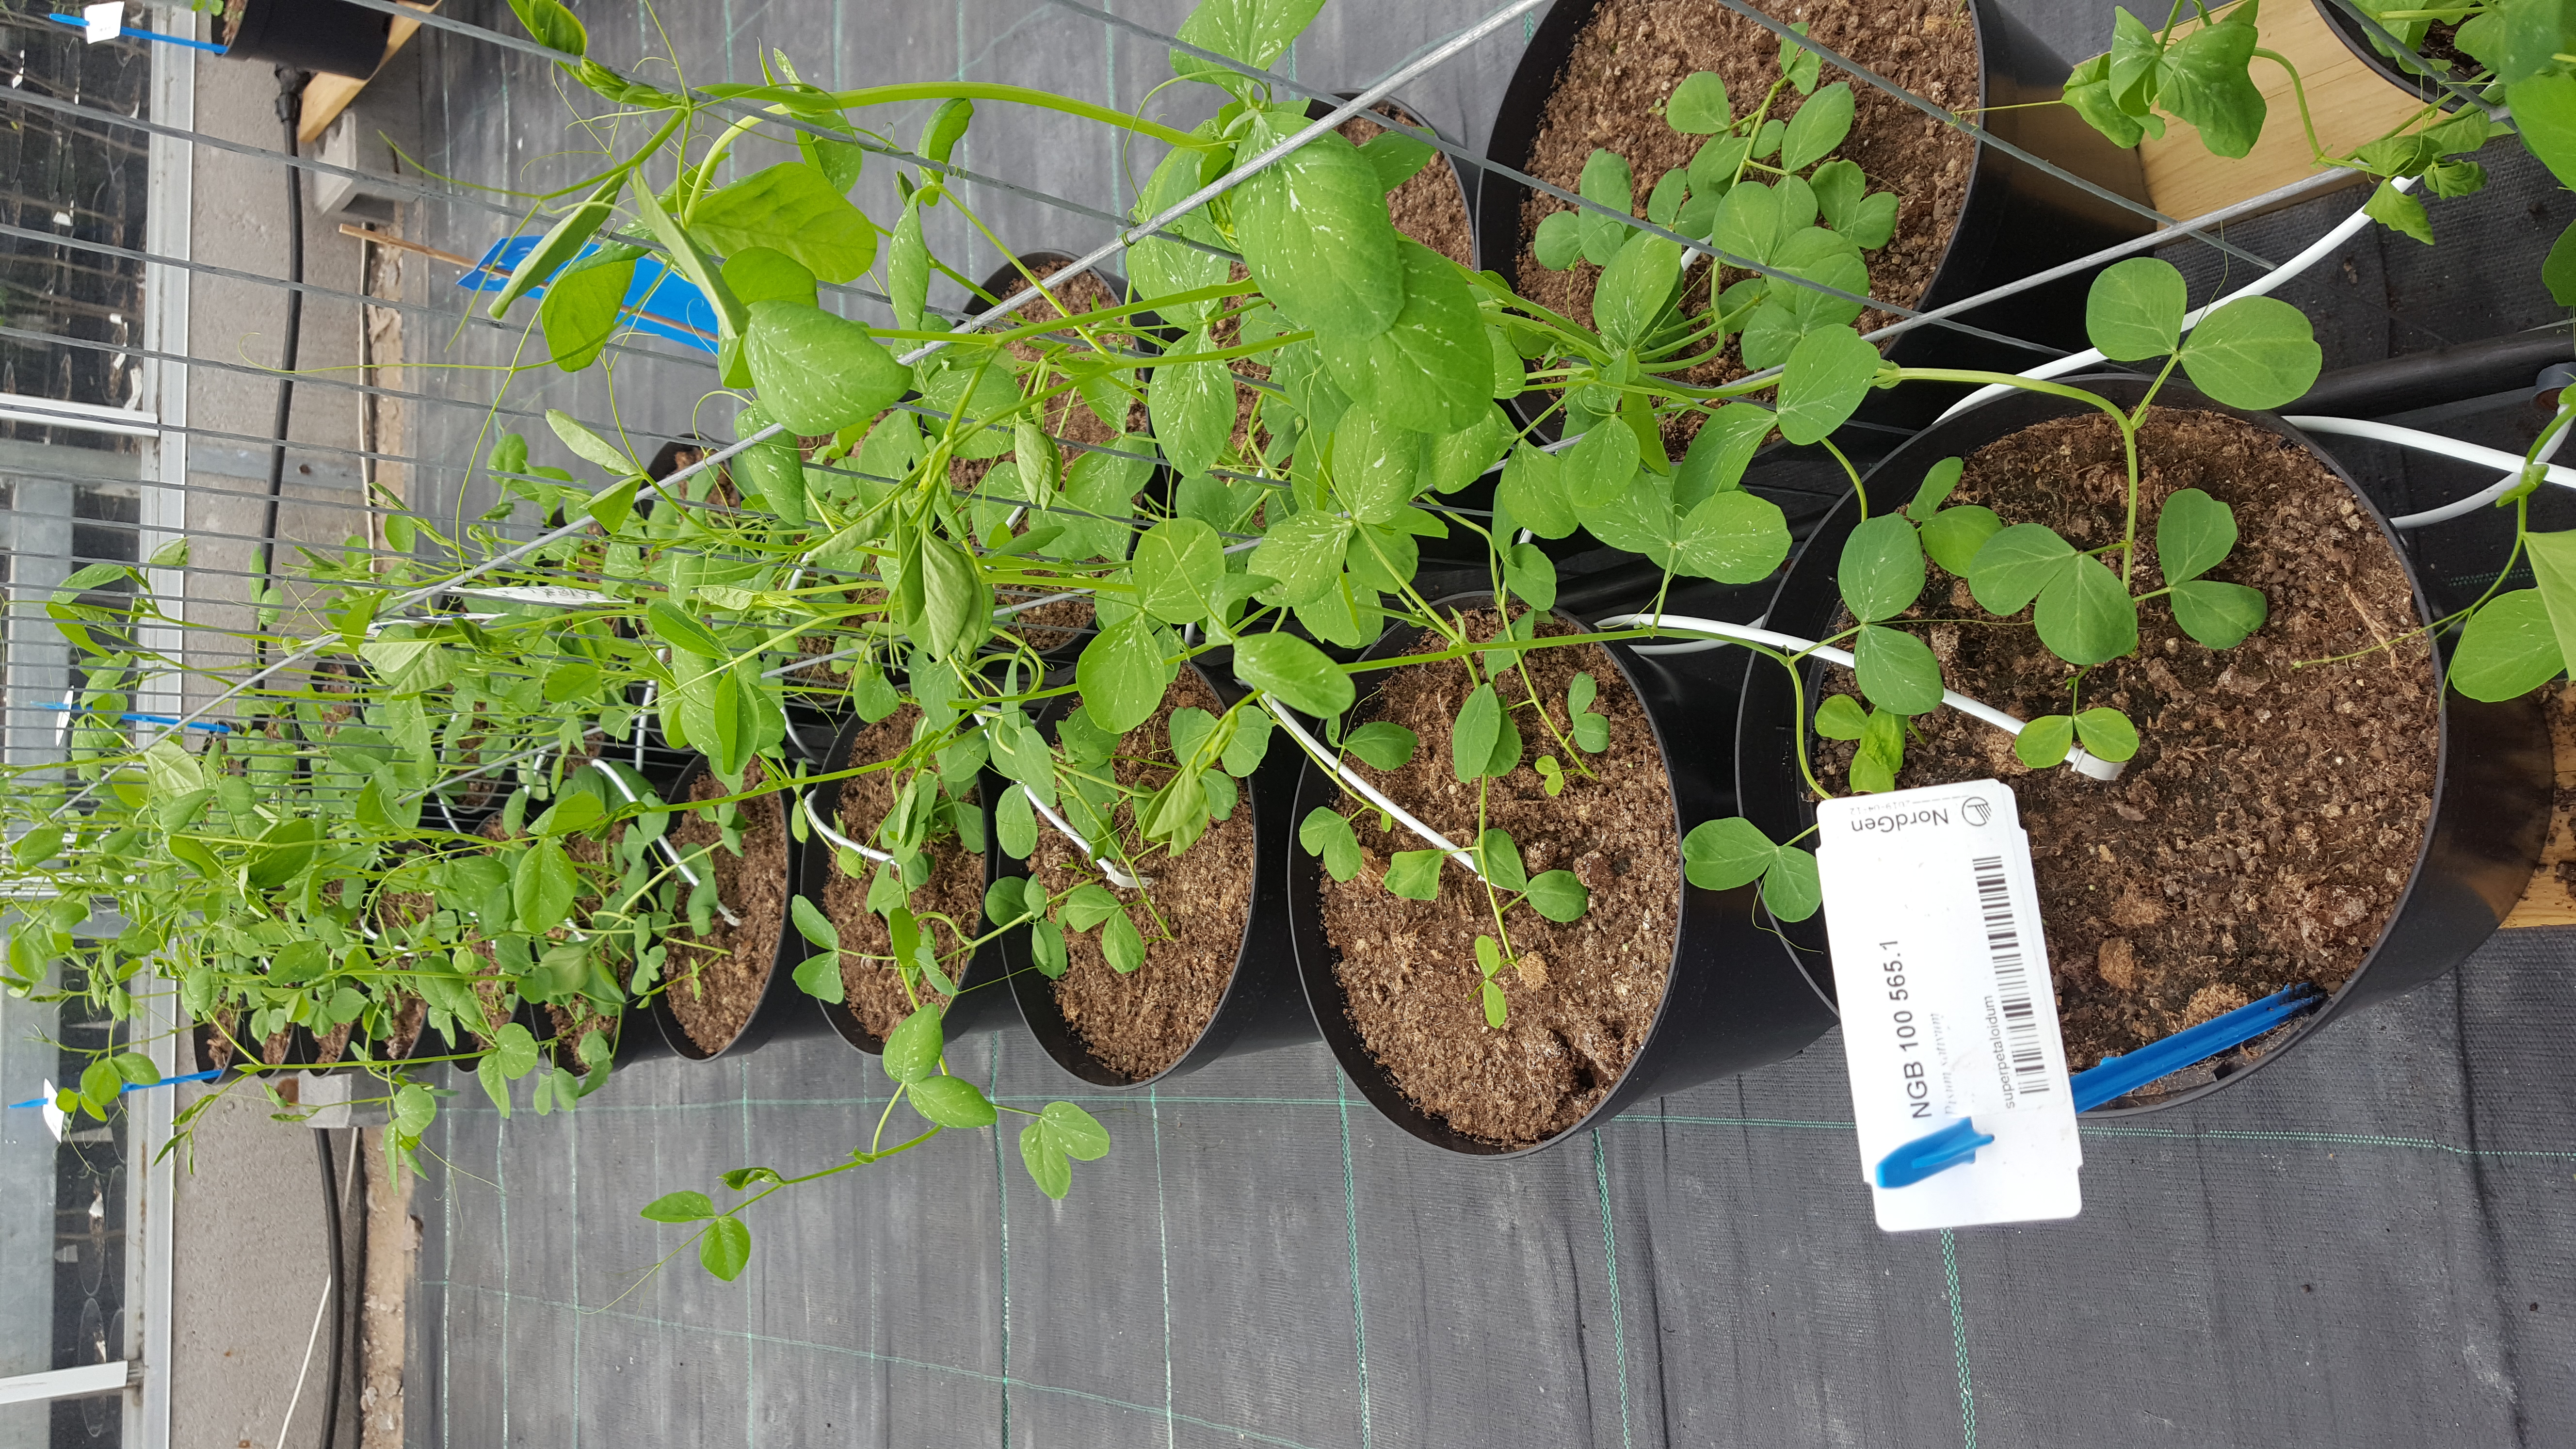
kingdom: Plantae
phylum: Tracheophyta
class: Magnoliopsida
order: Fabales
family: Fabaceae
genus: Lathyrus
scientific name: Lathyrus oleraceus
